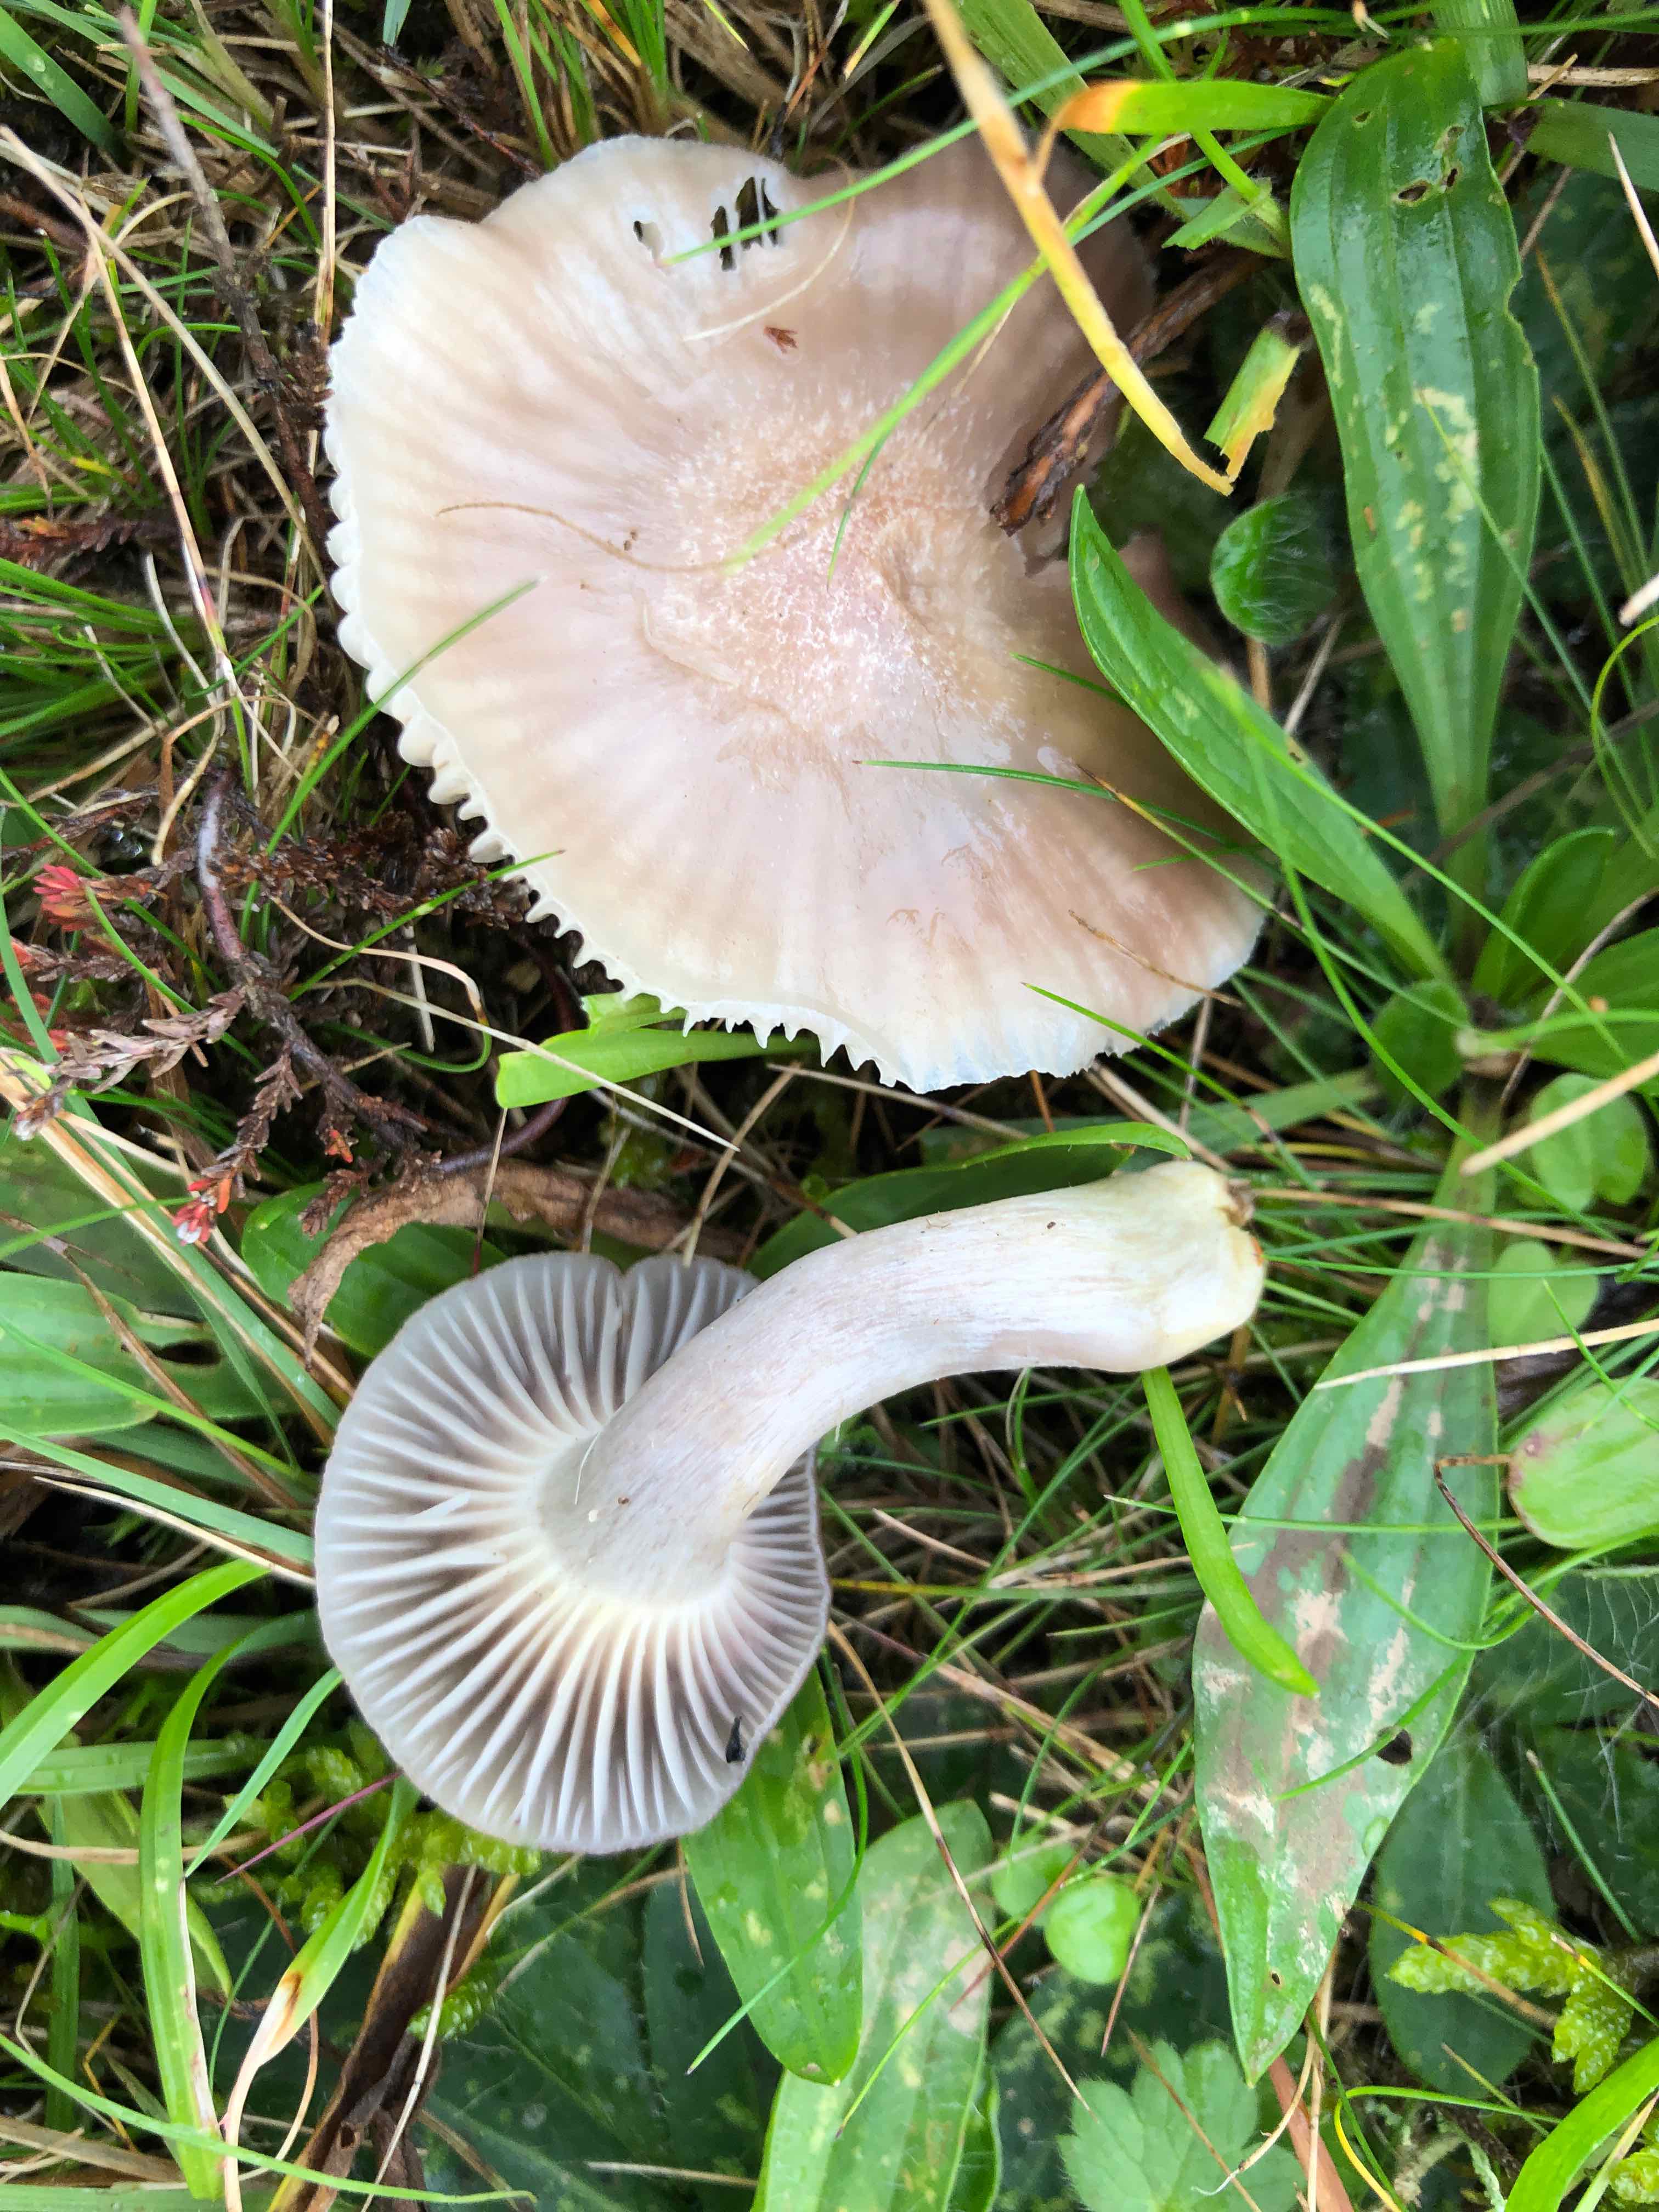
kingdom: Fungi
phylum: Basidiomycota
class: Agaricomycetes
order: Agaricales
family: Hygrophoraceae
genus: Cuphophyllus
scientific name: Cuphophyllus flavipes
